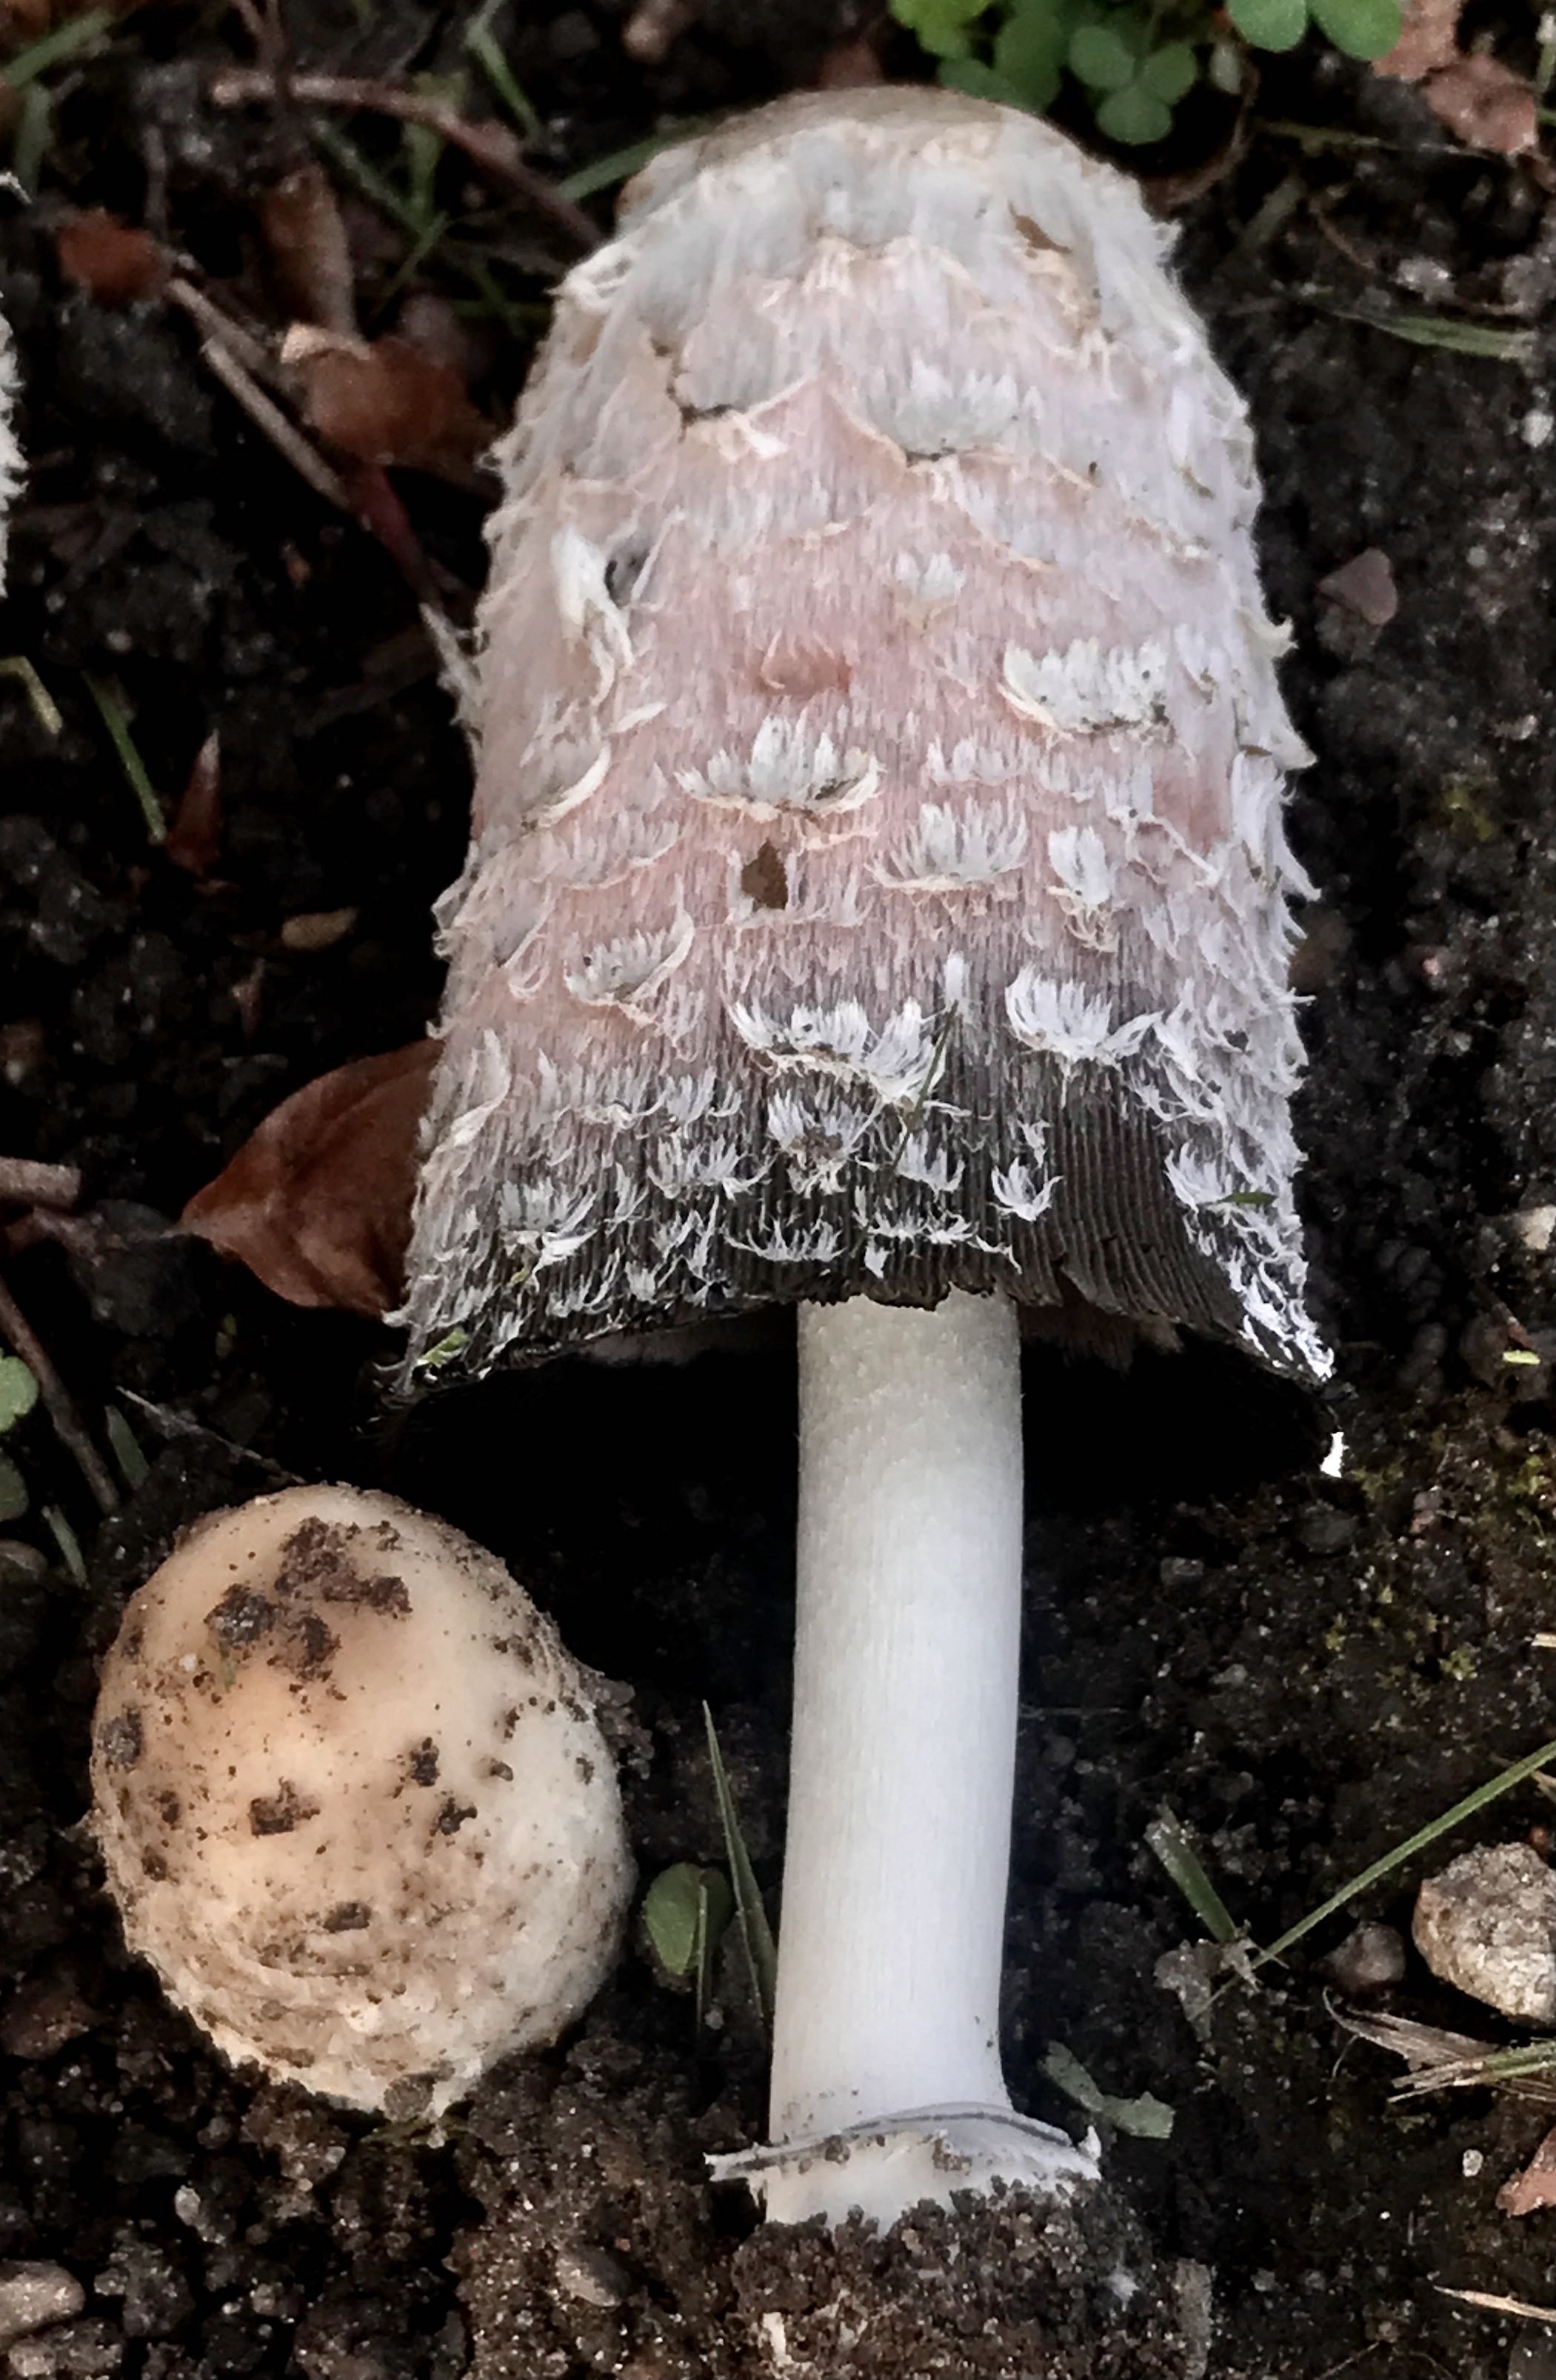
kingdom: Fungi
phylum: Basidiomycota
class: Agaricomycetes
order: Agaricales
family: Agaricaceae
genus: Coprinus
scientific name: Coprinus comatus
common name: stor parykhat
